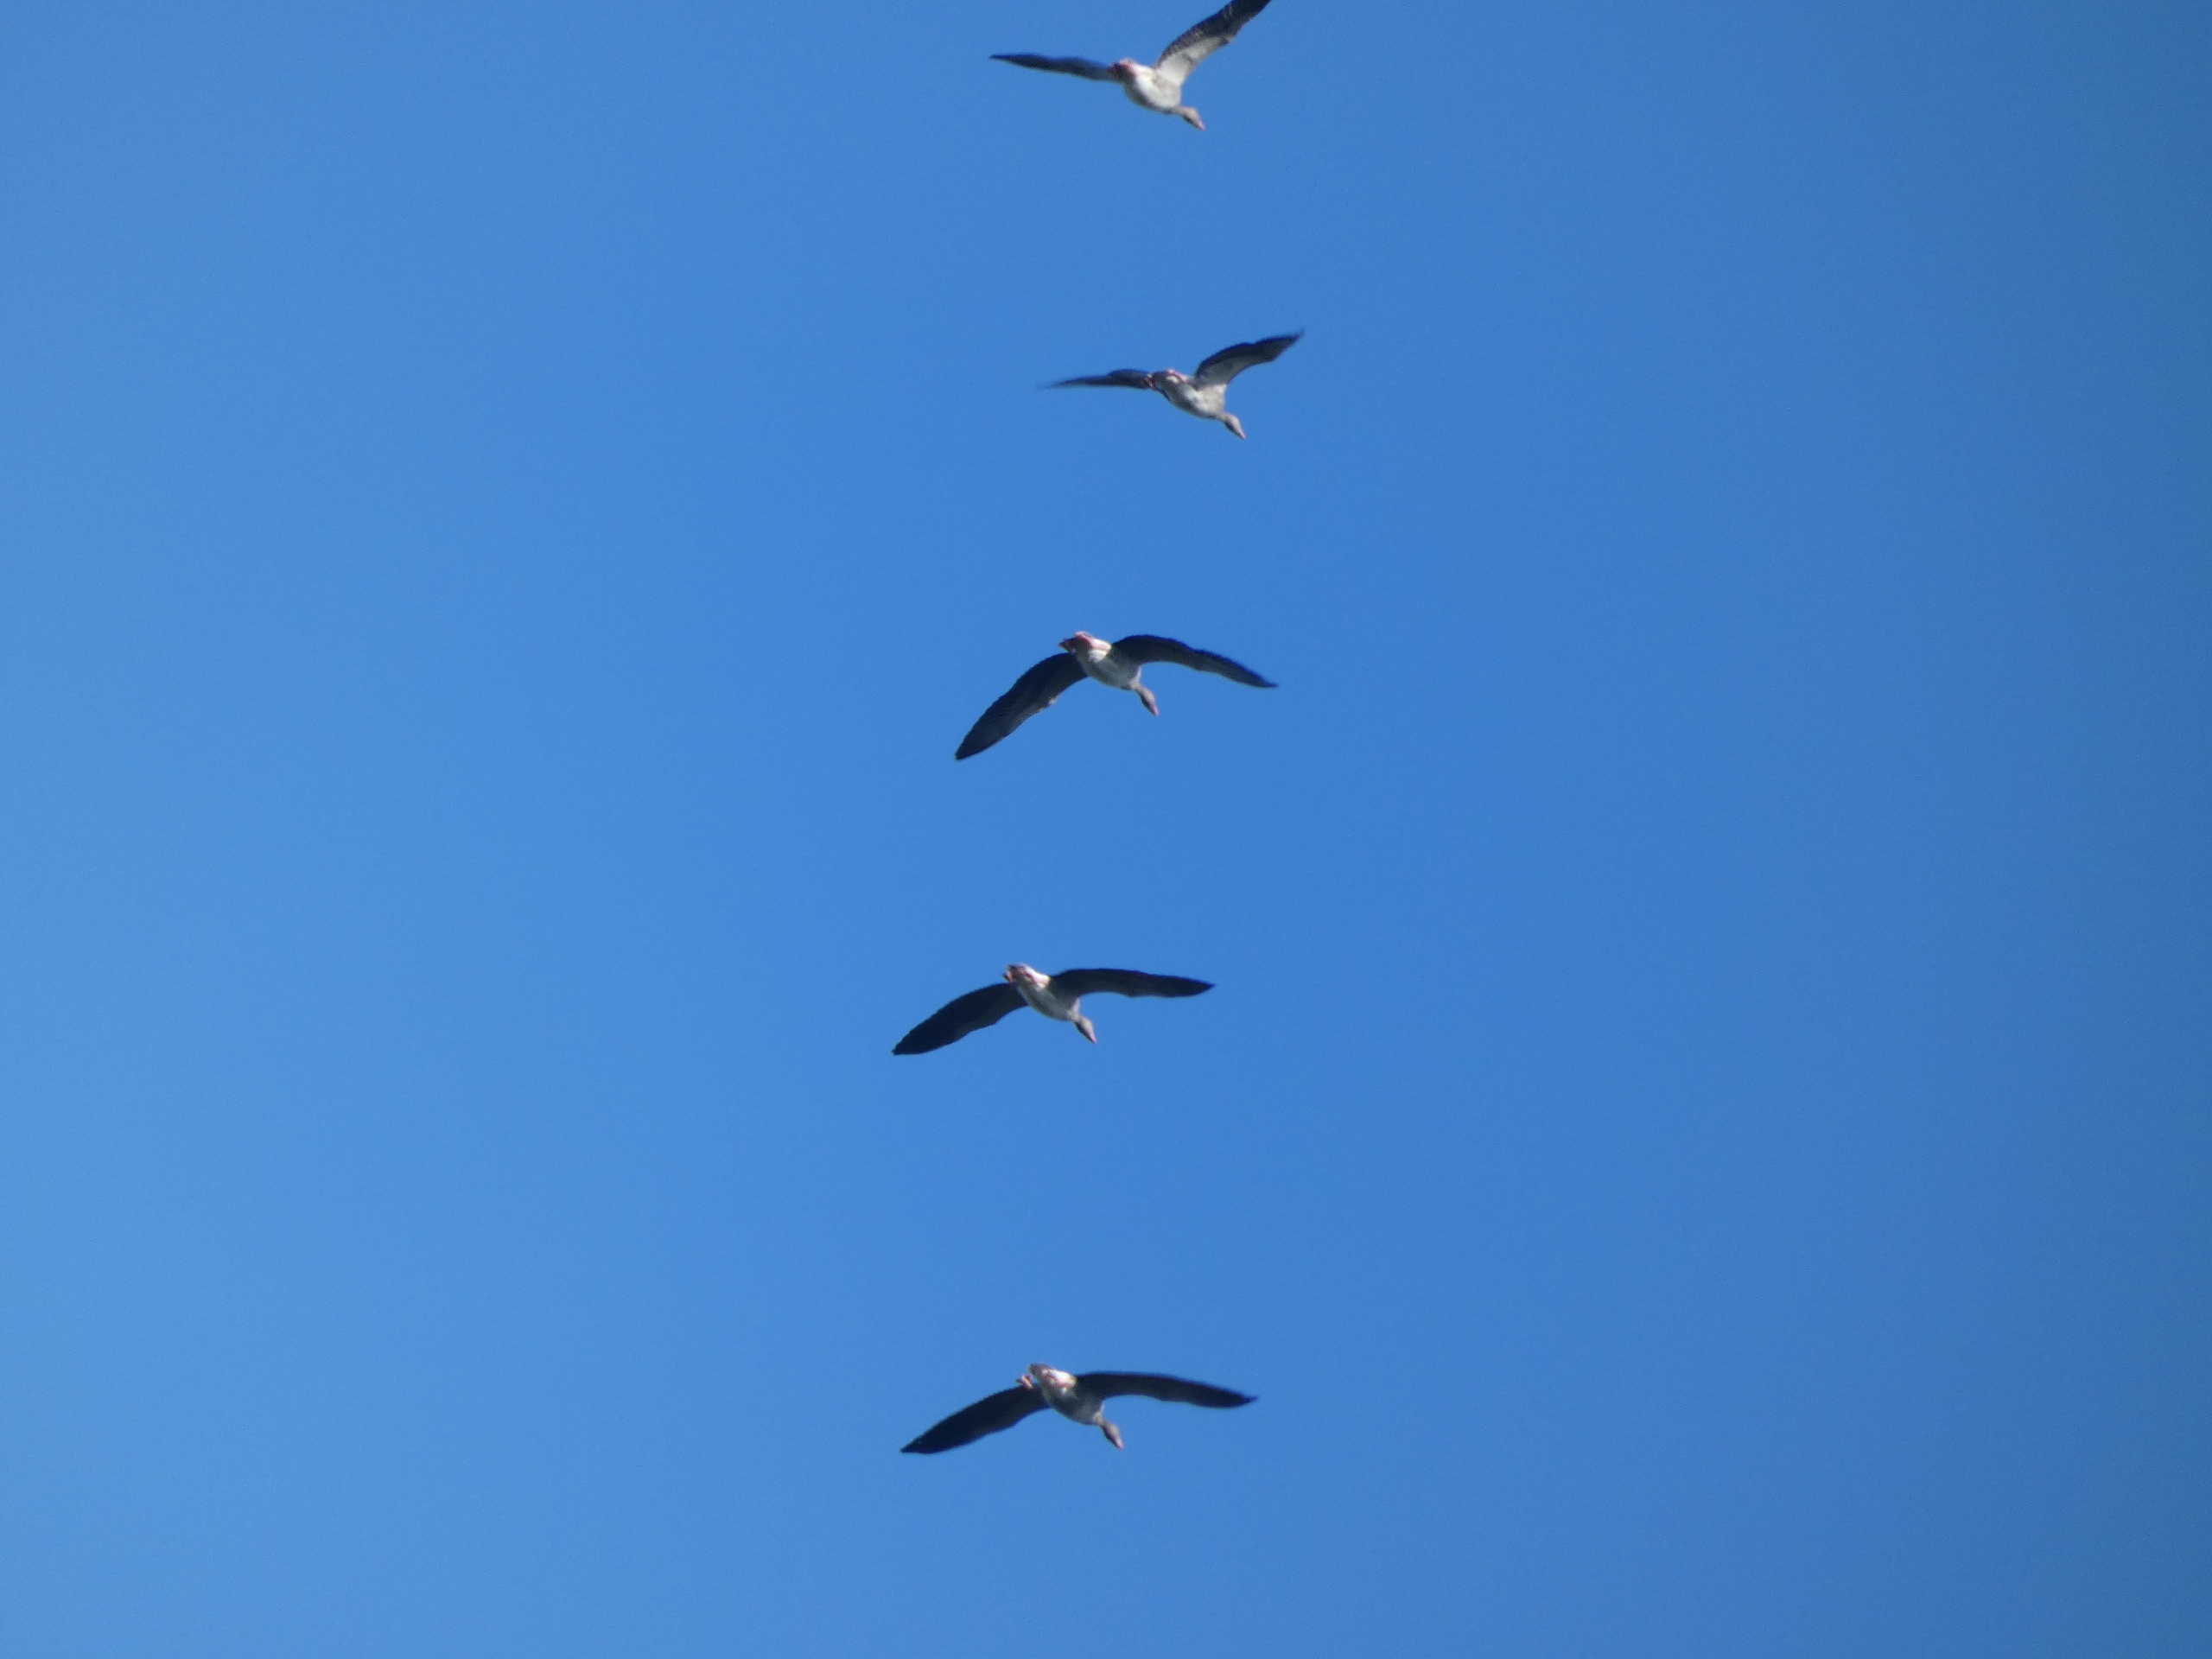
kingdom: Animalia
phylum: Chordata
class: Aves
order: Anseriformes
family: Anatidae
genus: Anser
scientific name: Anser anser
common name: Grågås
